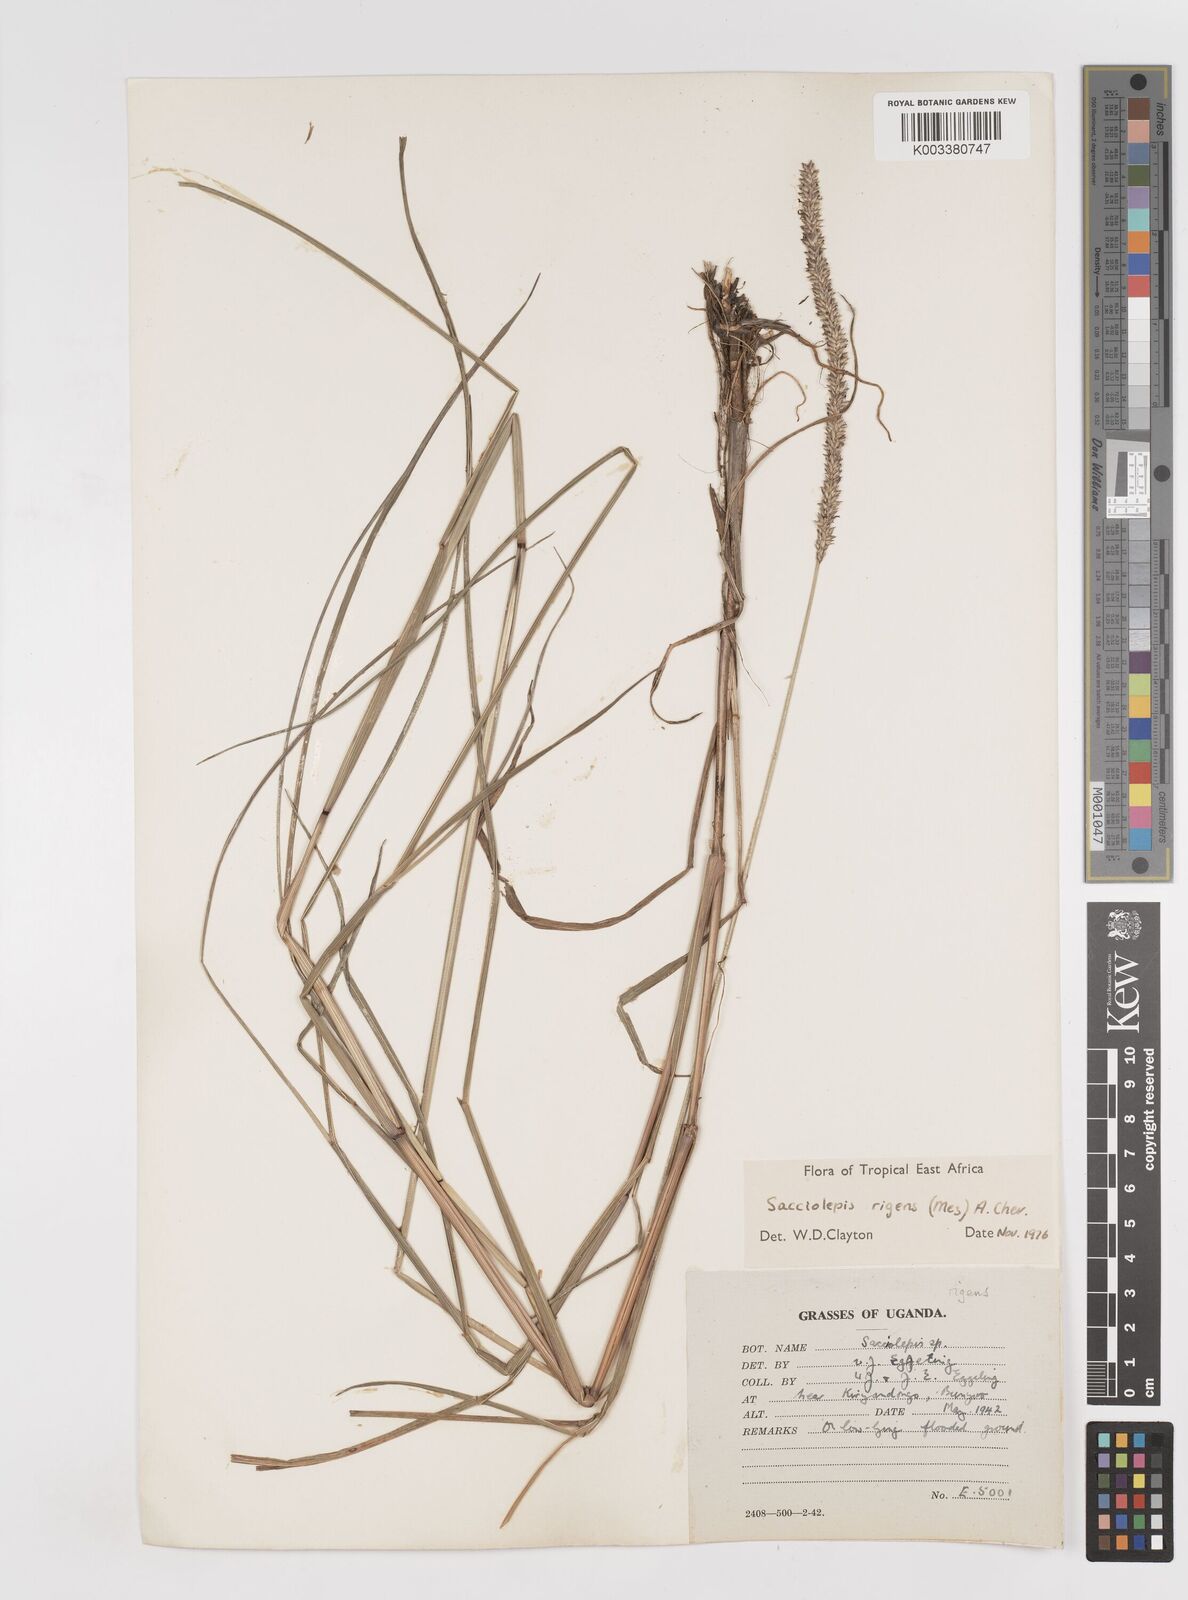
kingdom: Plantae
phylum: Tracheophyta
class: Liliopsida
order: Poales
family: Poaceae
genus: Sacciolepis
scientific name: Sacciolepis leptorrhachis
